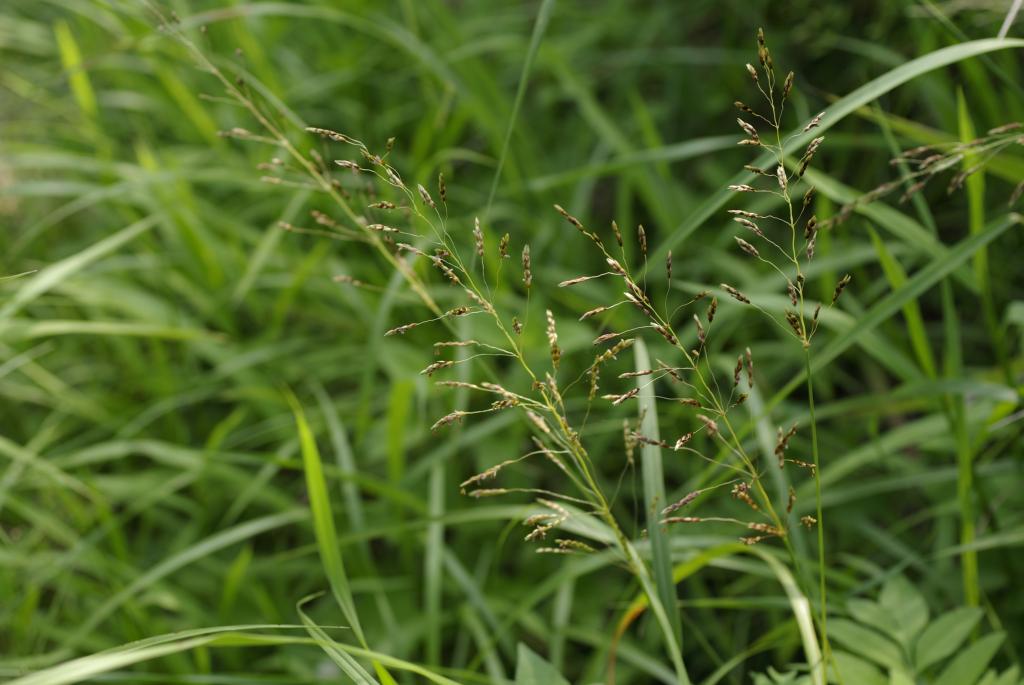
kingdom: Plantae
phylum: Tracheophyta
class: Liliopsida
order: Poales
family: Poaceae
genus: Sorghum
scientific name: Sorghum nitidum
